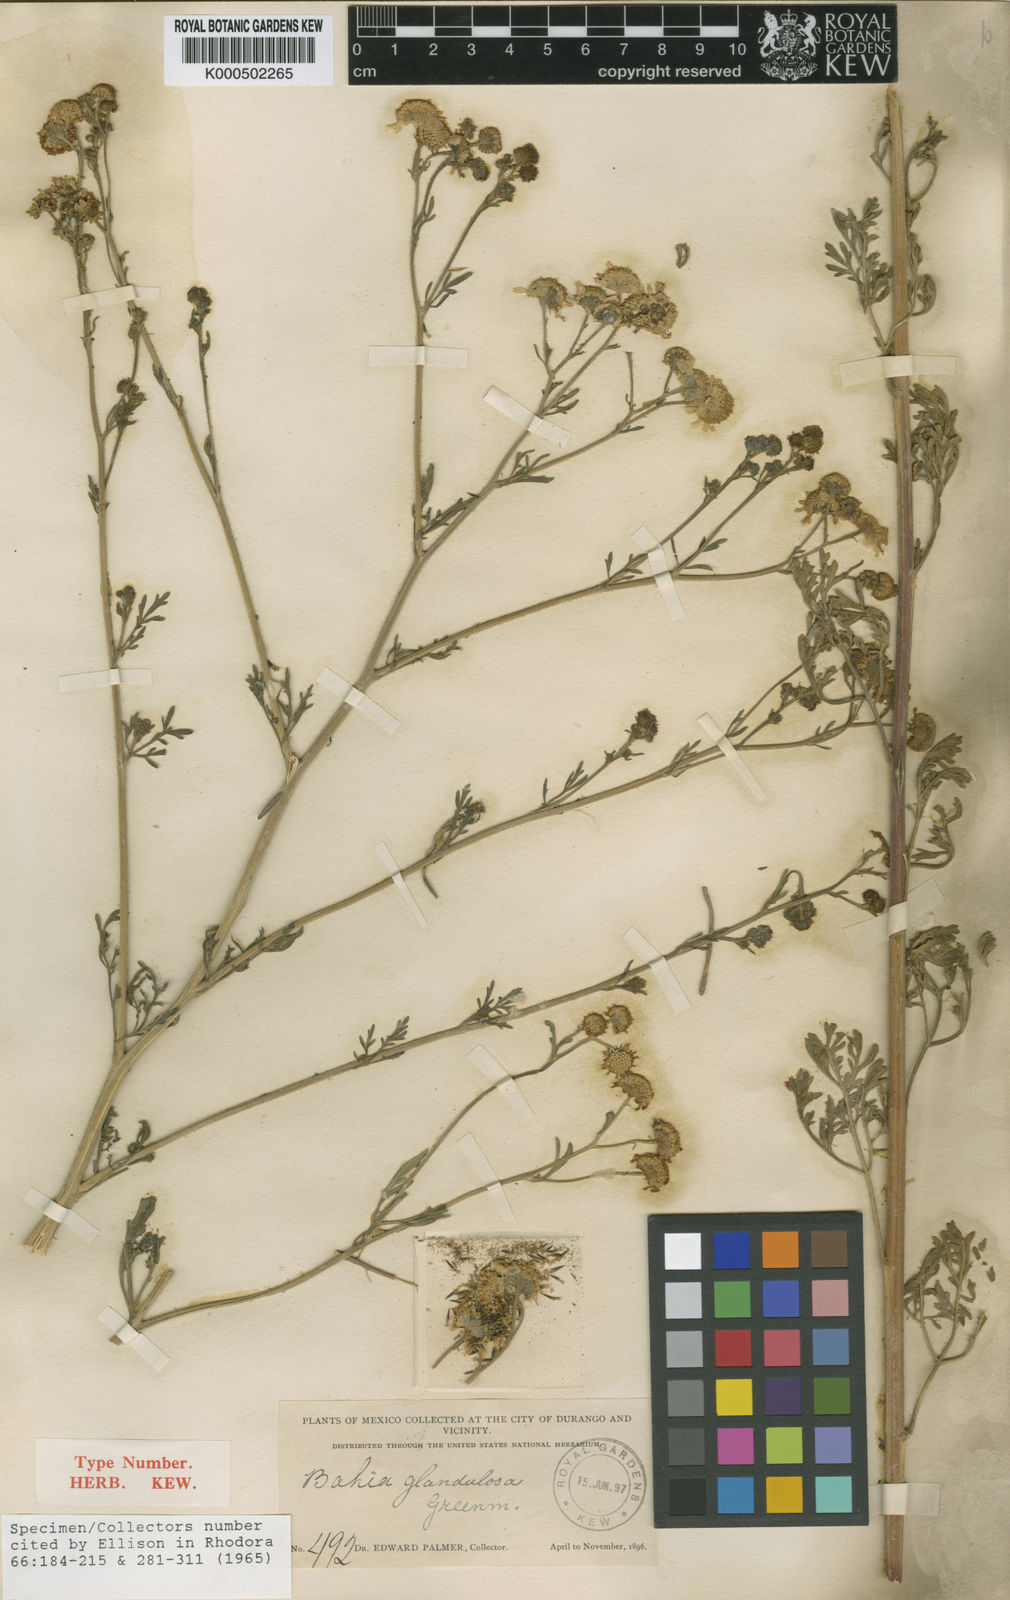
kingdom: Plantae
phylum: Tracheophyta
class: Magnoliopsida
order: Asterales
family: Asteraceae
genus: Hymenothrix
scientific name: Hymenothrix glandulopubescens
